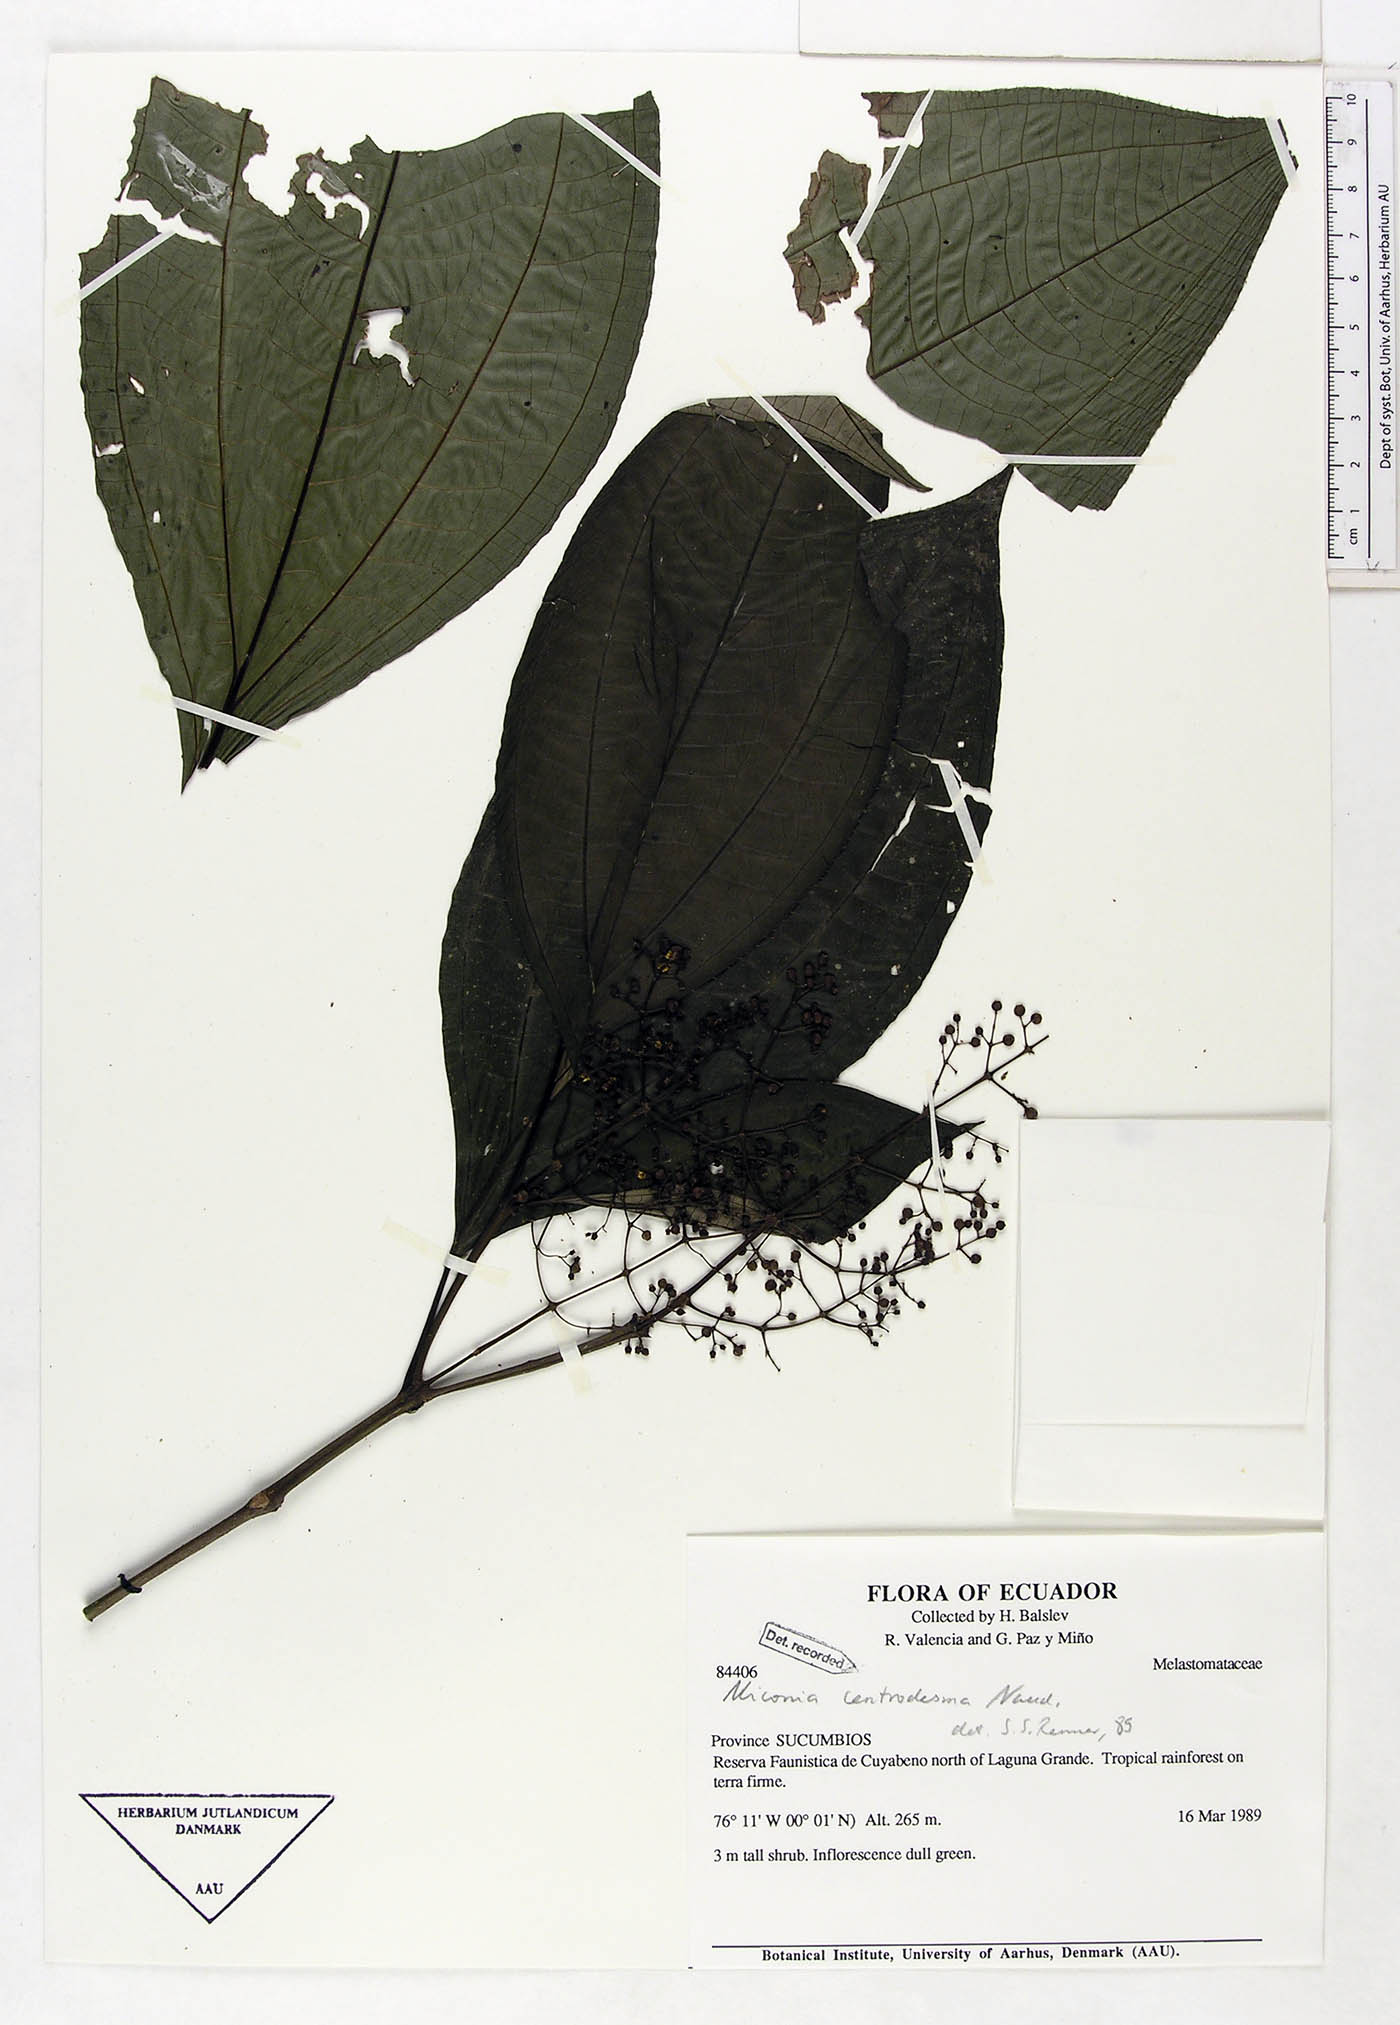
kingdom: Plantae
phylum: Tracheophyta
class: Magnoliopsida
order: Myrtales
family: Melastomataceae
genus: Miconia
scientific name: Miconia centrodesma
